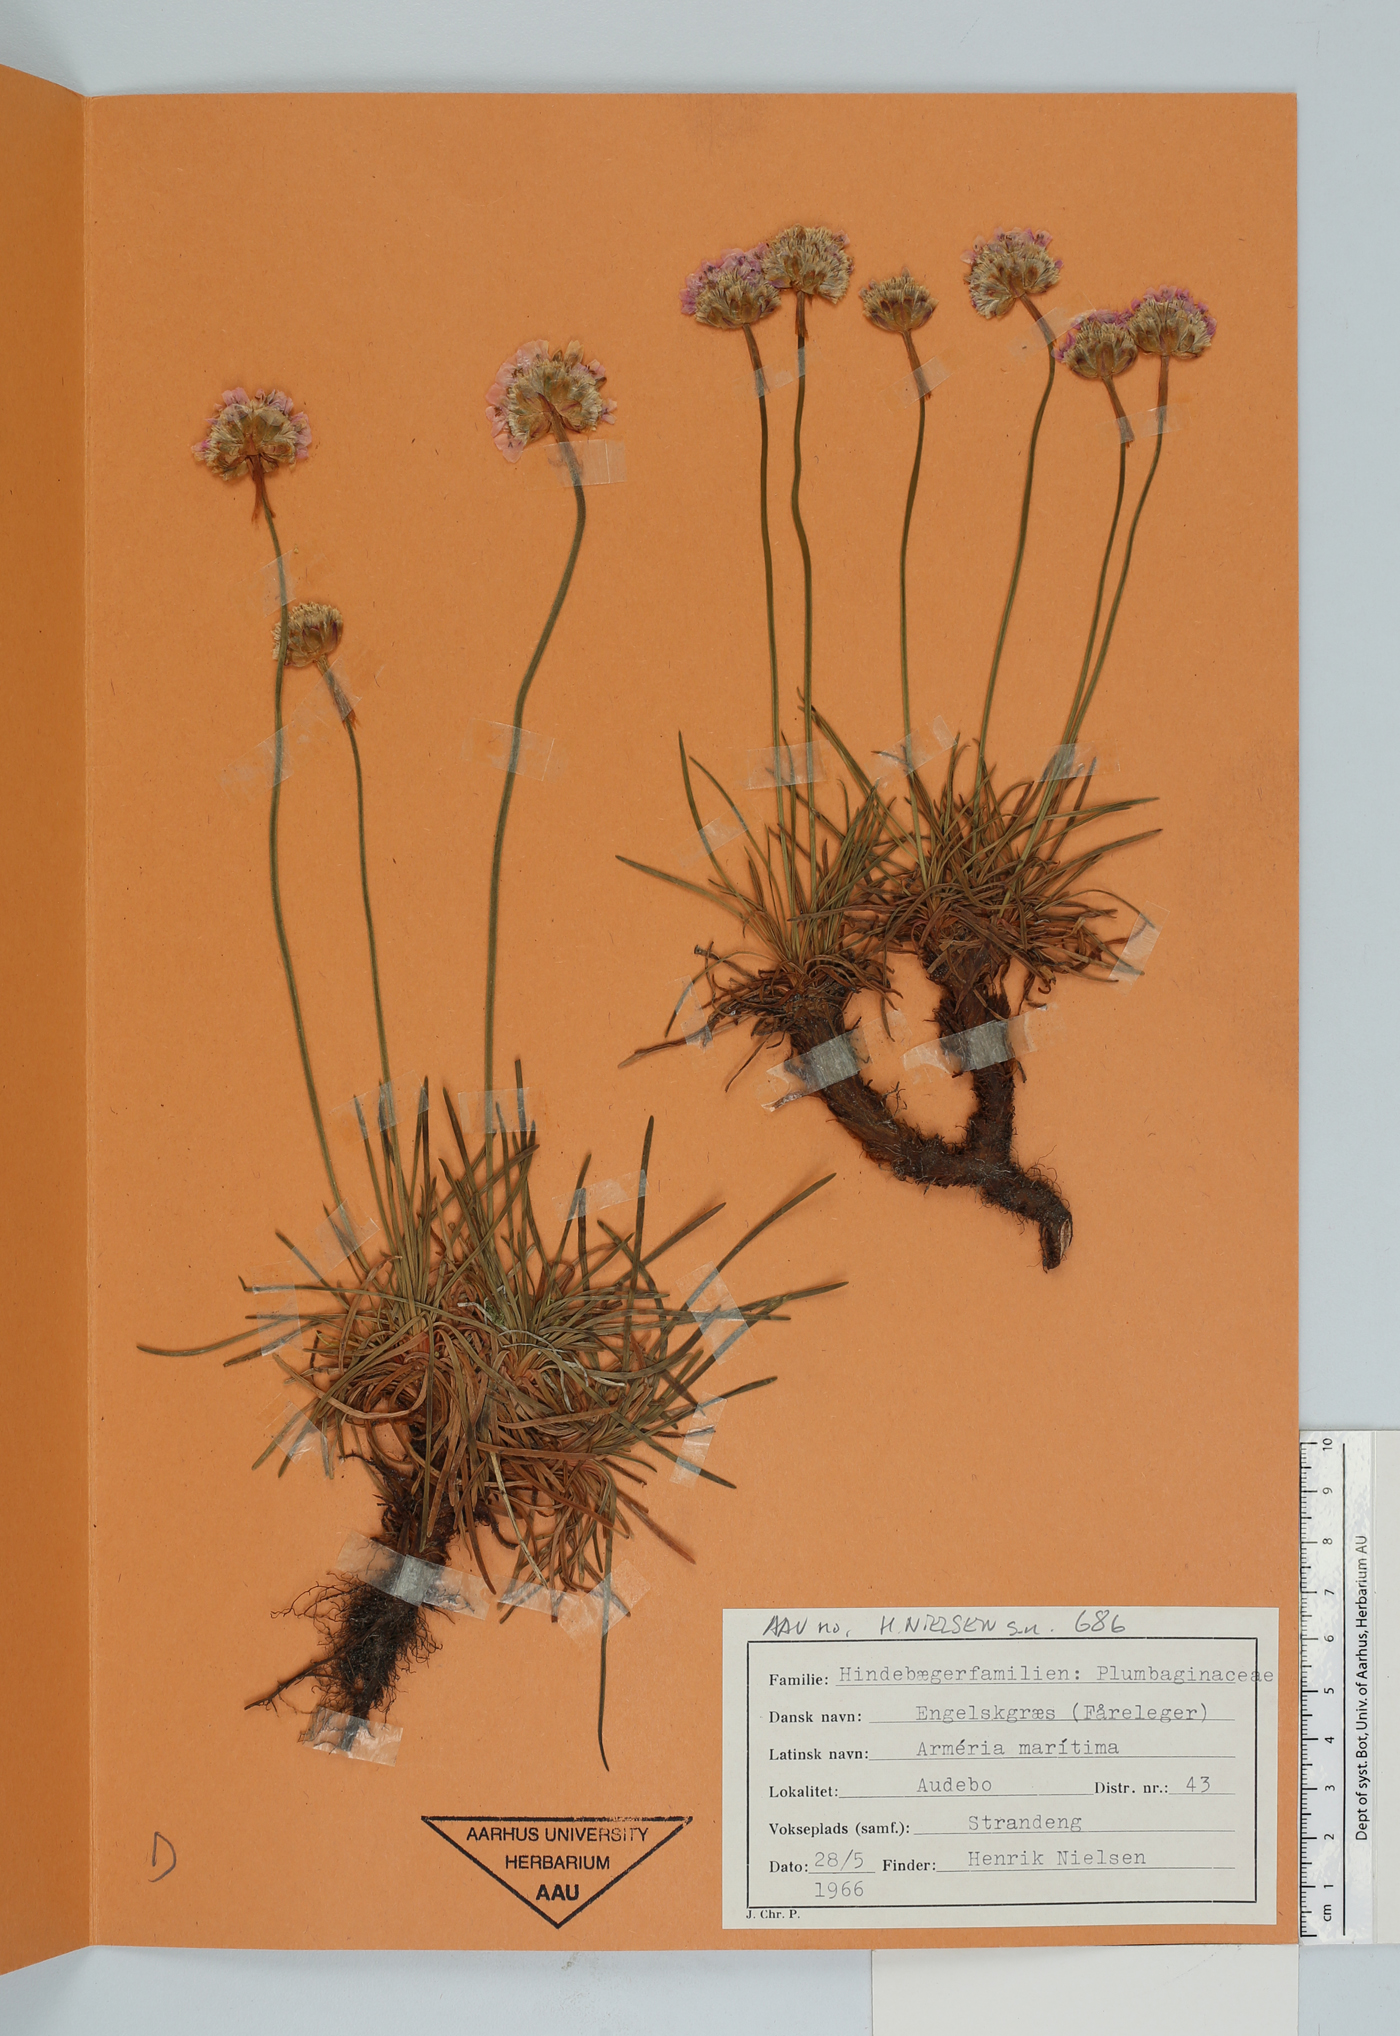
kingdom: Plantae
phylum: Tracheophyta
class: Magnoliopsida
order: Caryophyllales
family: Plumbaginaceae
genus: Armeria
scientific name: Armeria maritima
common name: Thrift
